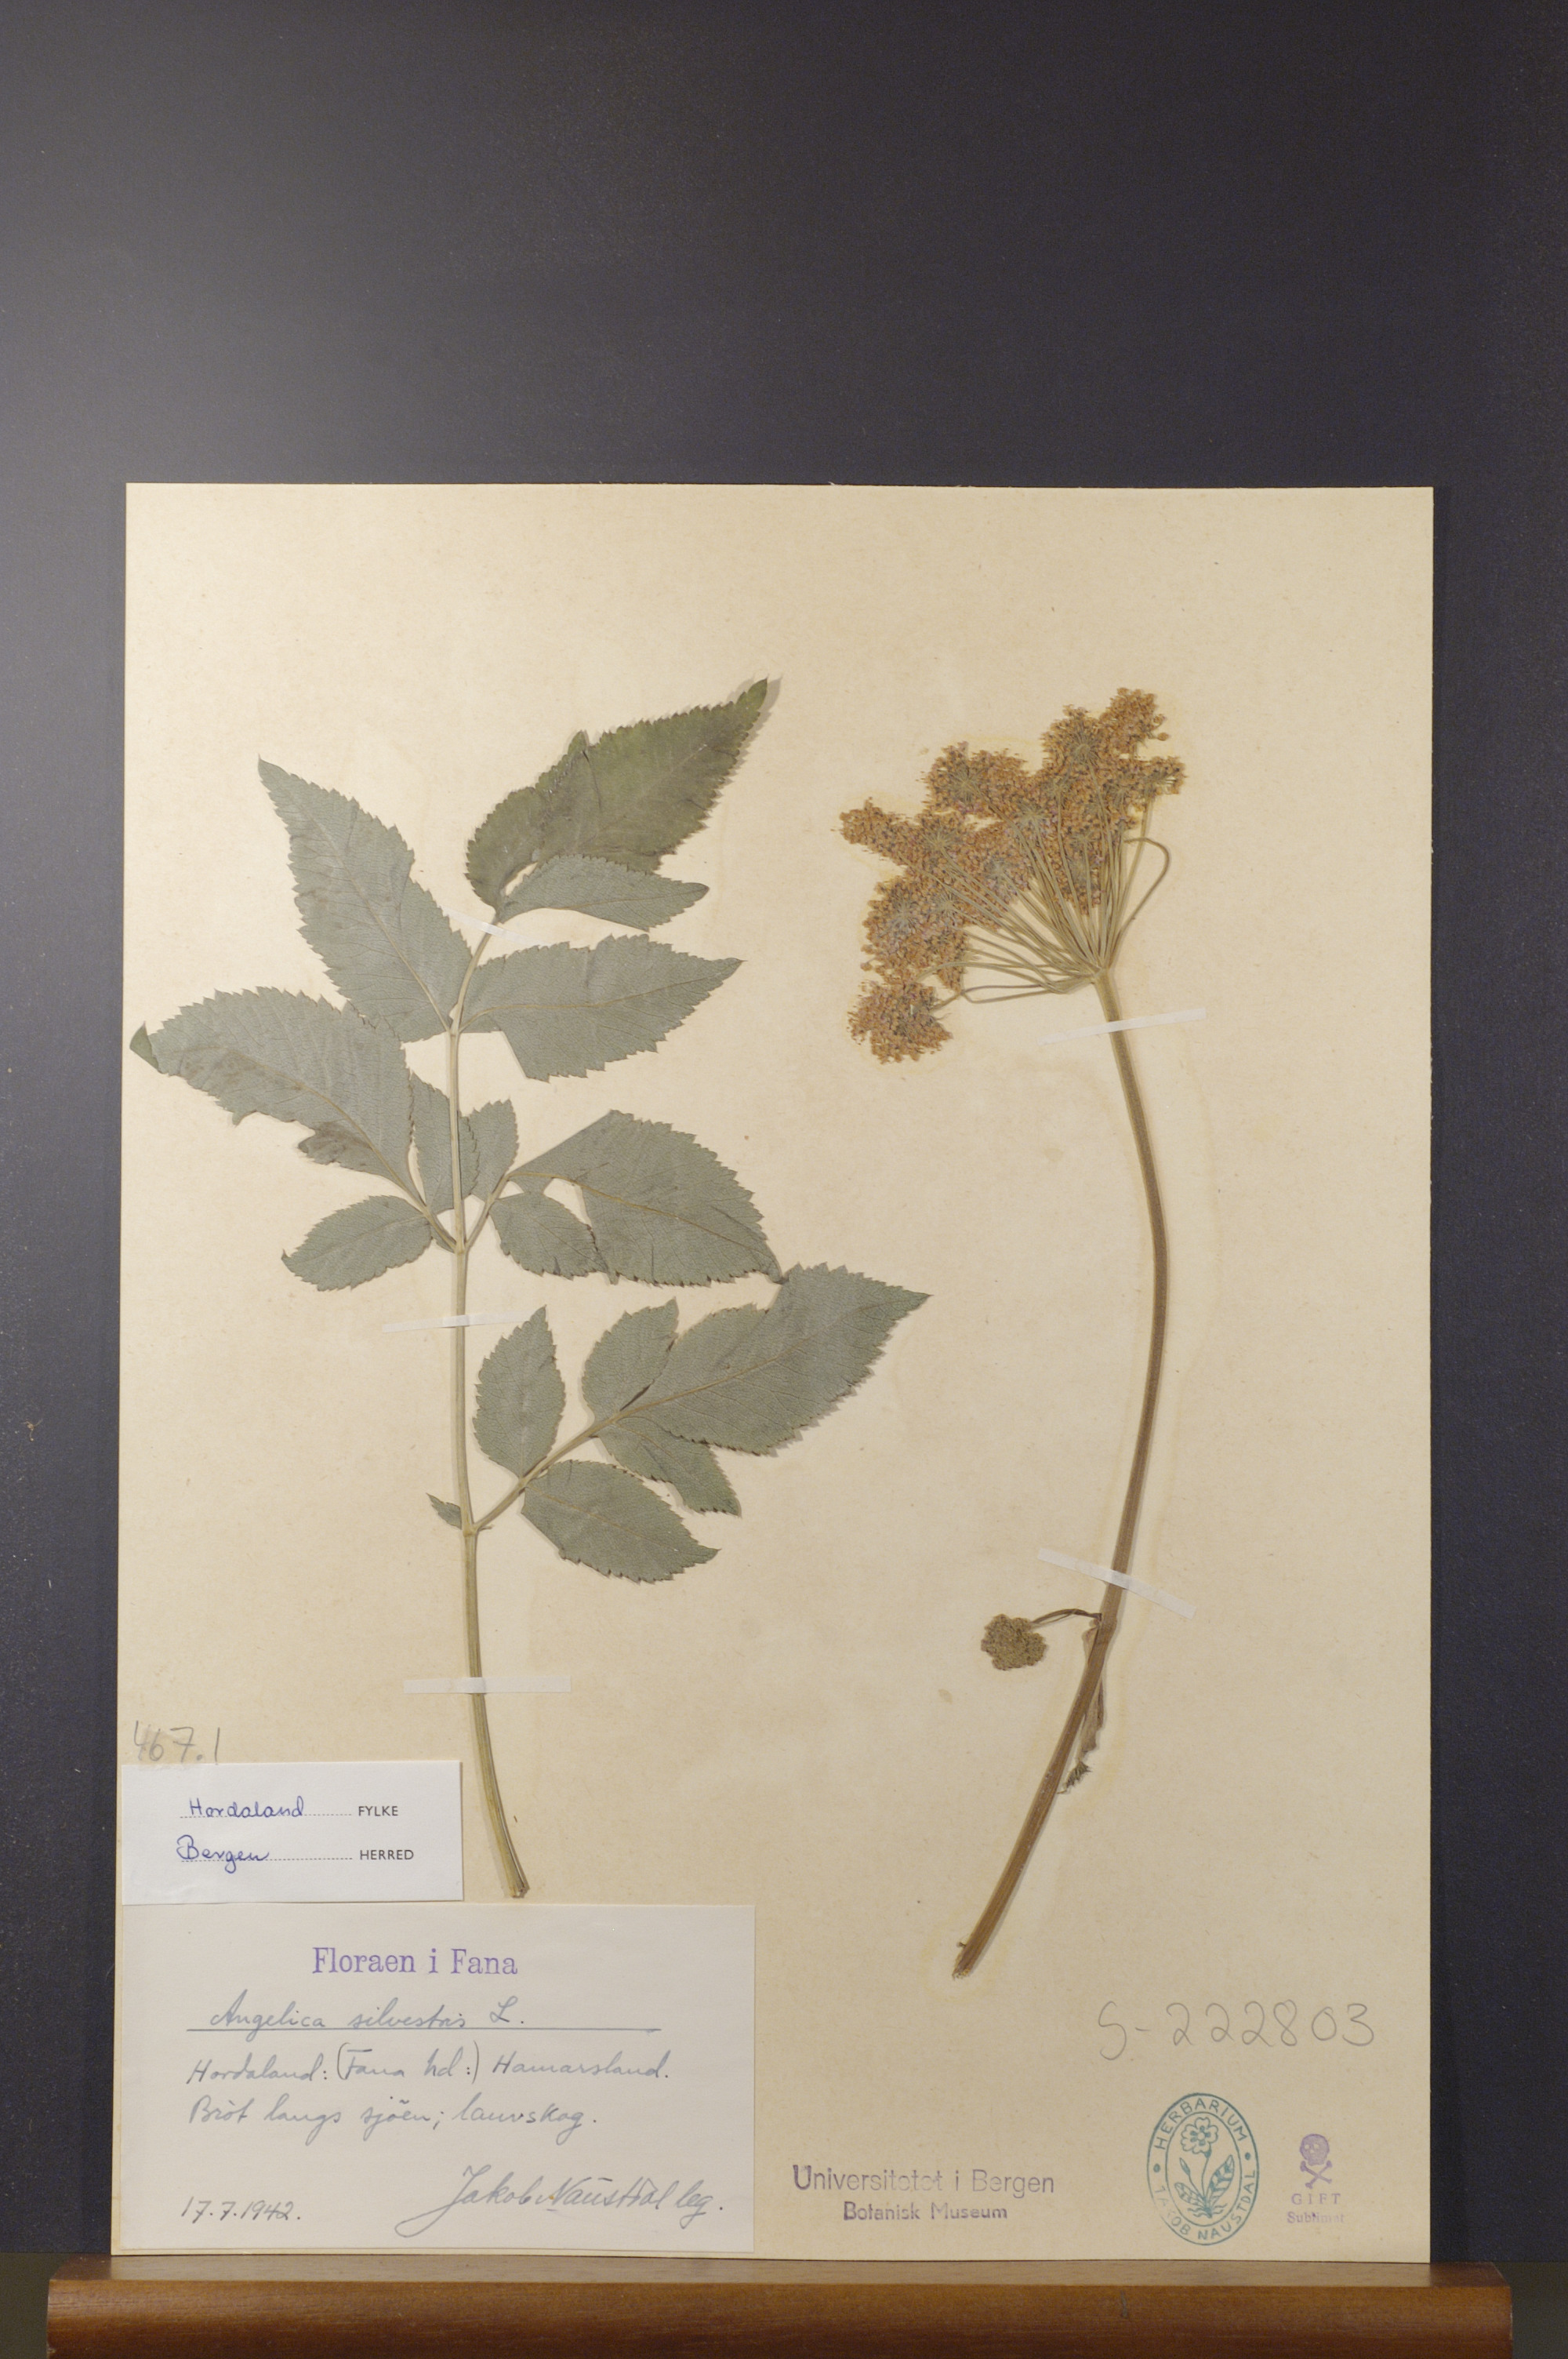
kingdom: Plantae
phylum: Tracheophyta
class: Magnoliopsida
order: Apiales
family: Apiaceae
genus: Angelica
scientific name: Angelica sylvestris
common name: Wild angelica
